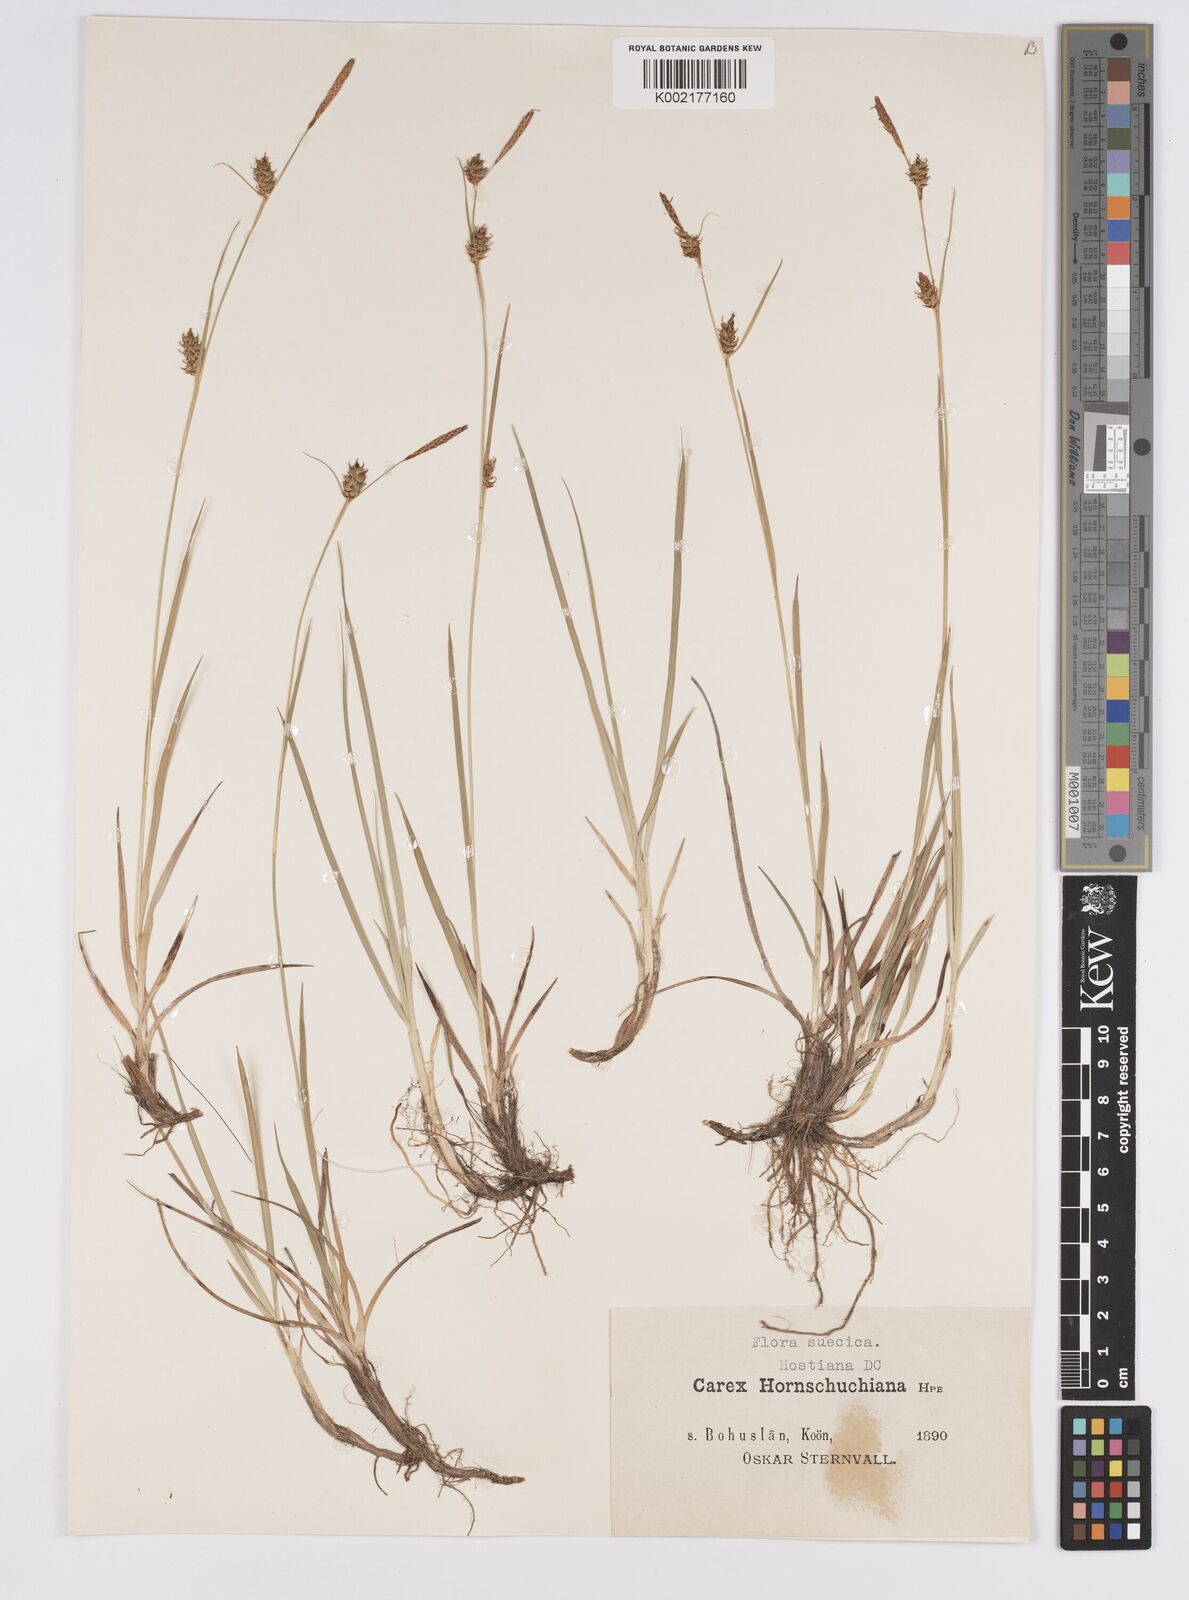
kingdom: Plantae
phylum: Tracheophyta
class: Liliopsida
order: Poales
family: Cyperaceae
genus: Carex
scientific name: Carex hostiana
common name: Tawny sedge
